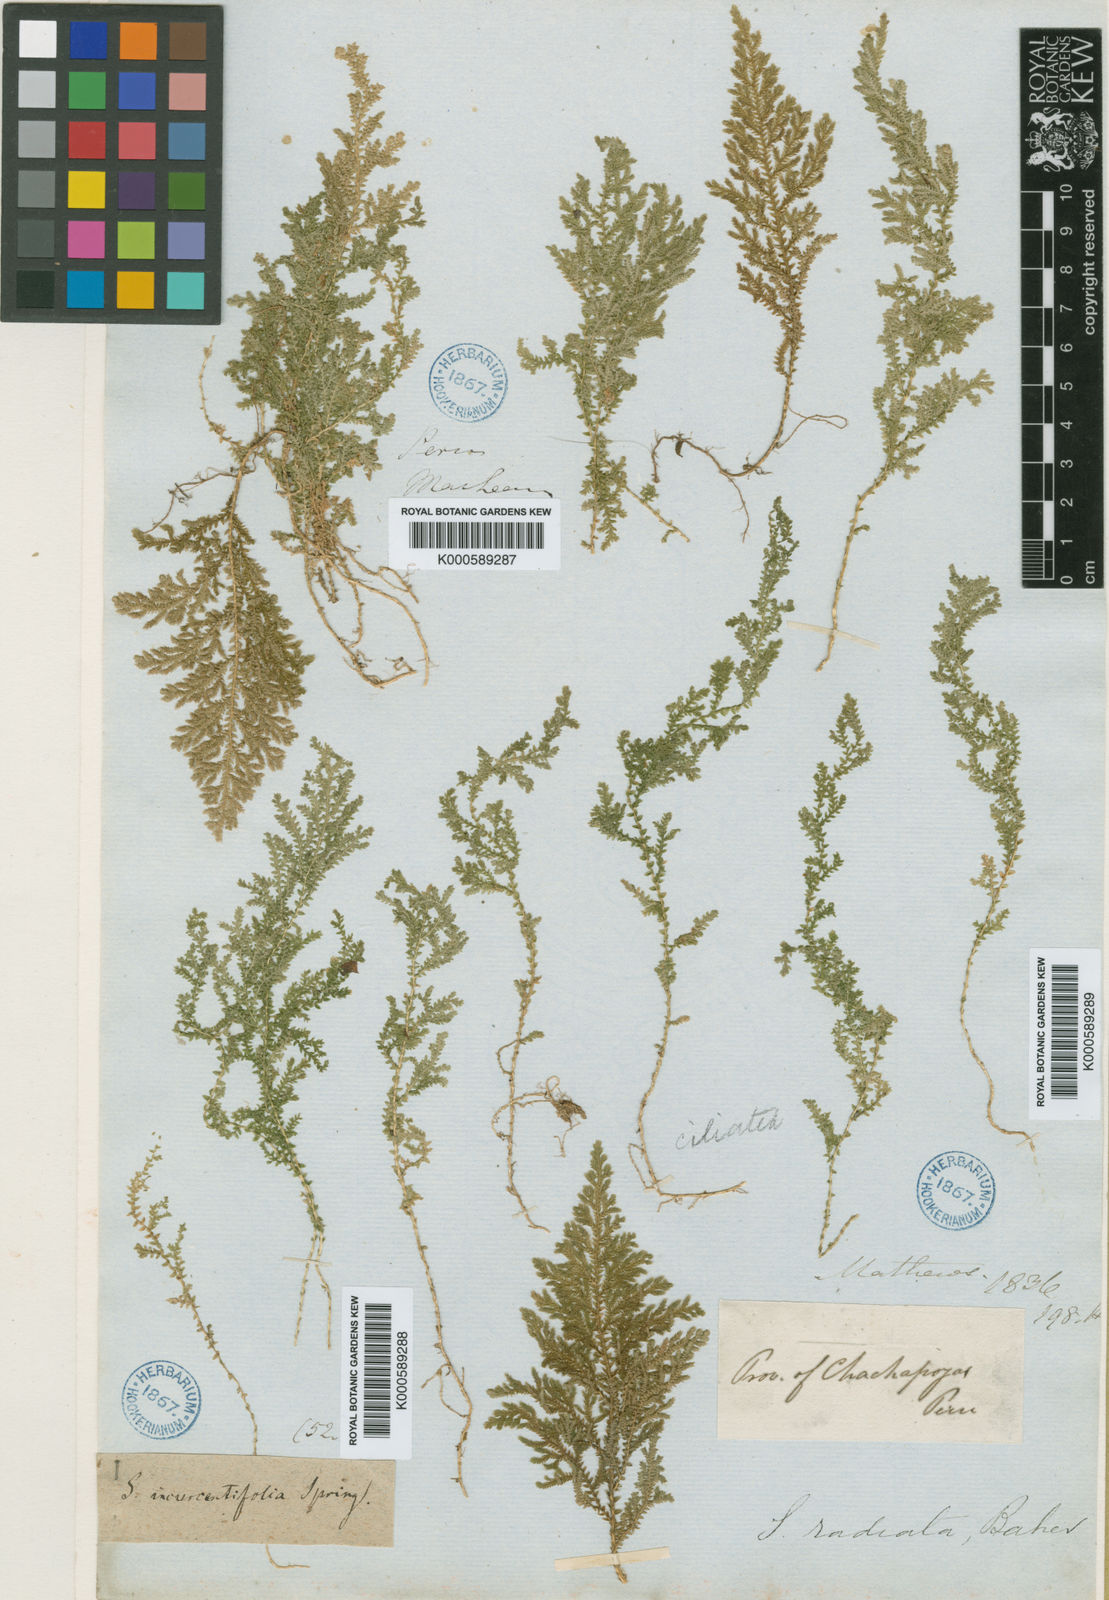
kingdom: Plantae
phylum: Tracheophyta
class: Lycopodiopsida
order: Selaginellales
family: Selaginellaceae
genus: Selaginella
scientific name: Selaginella novae-hollandiae
